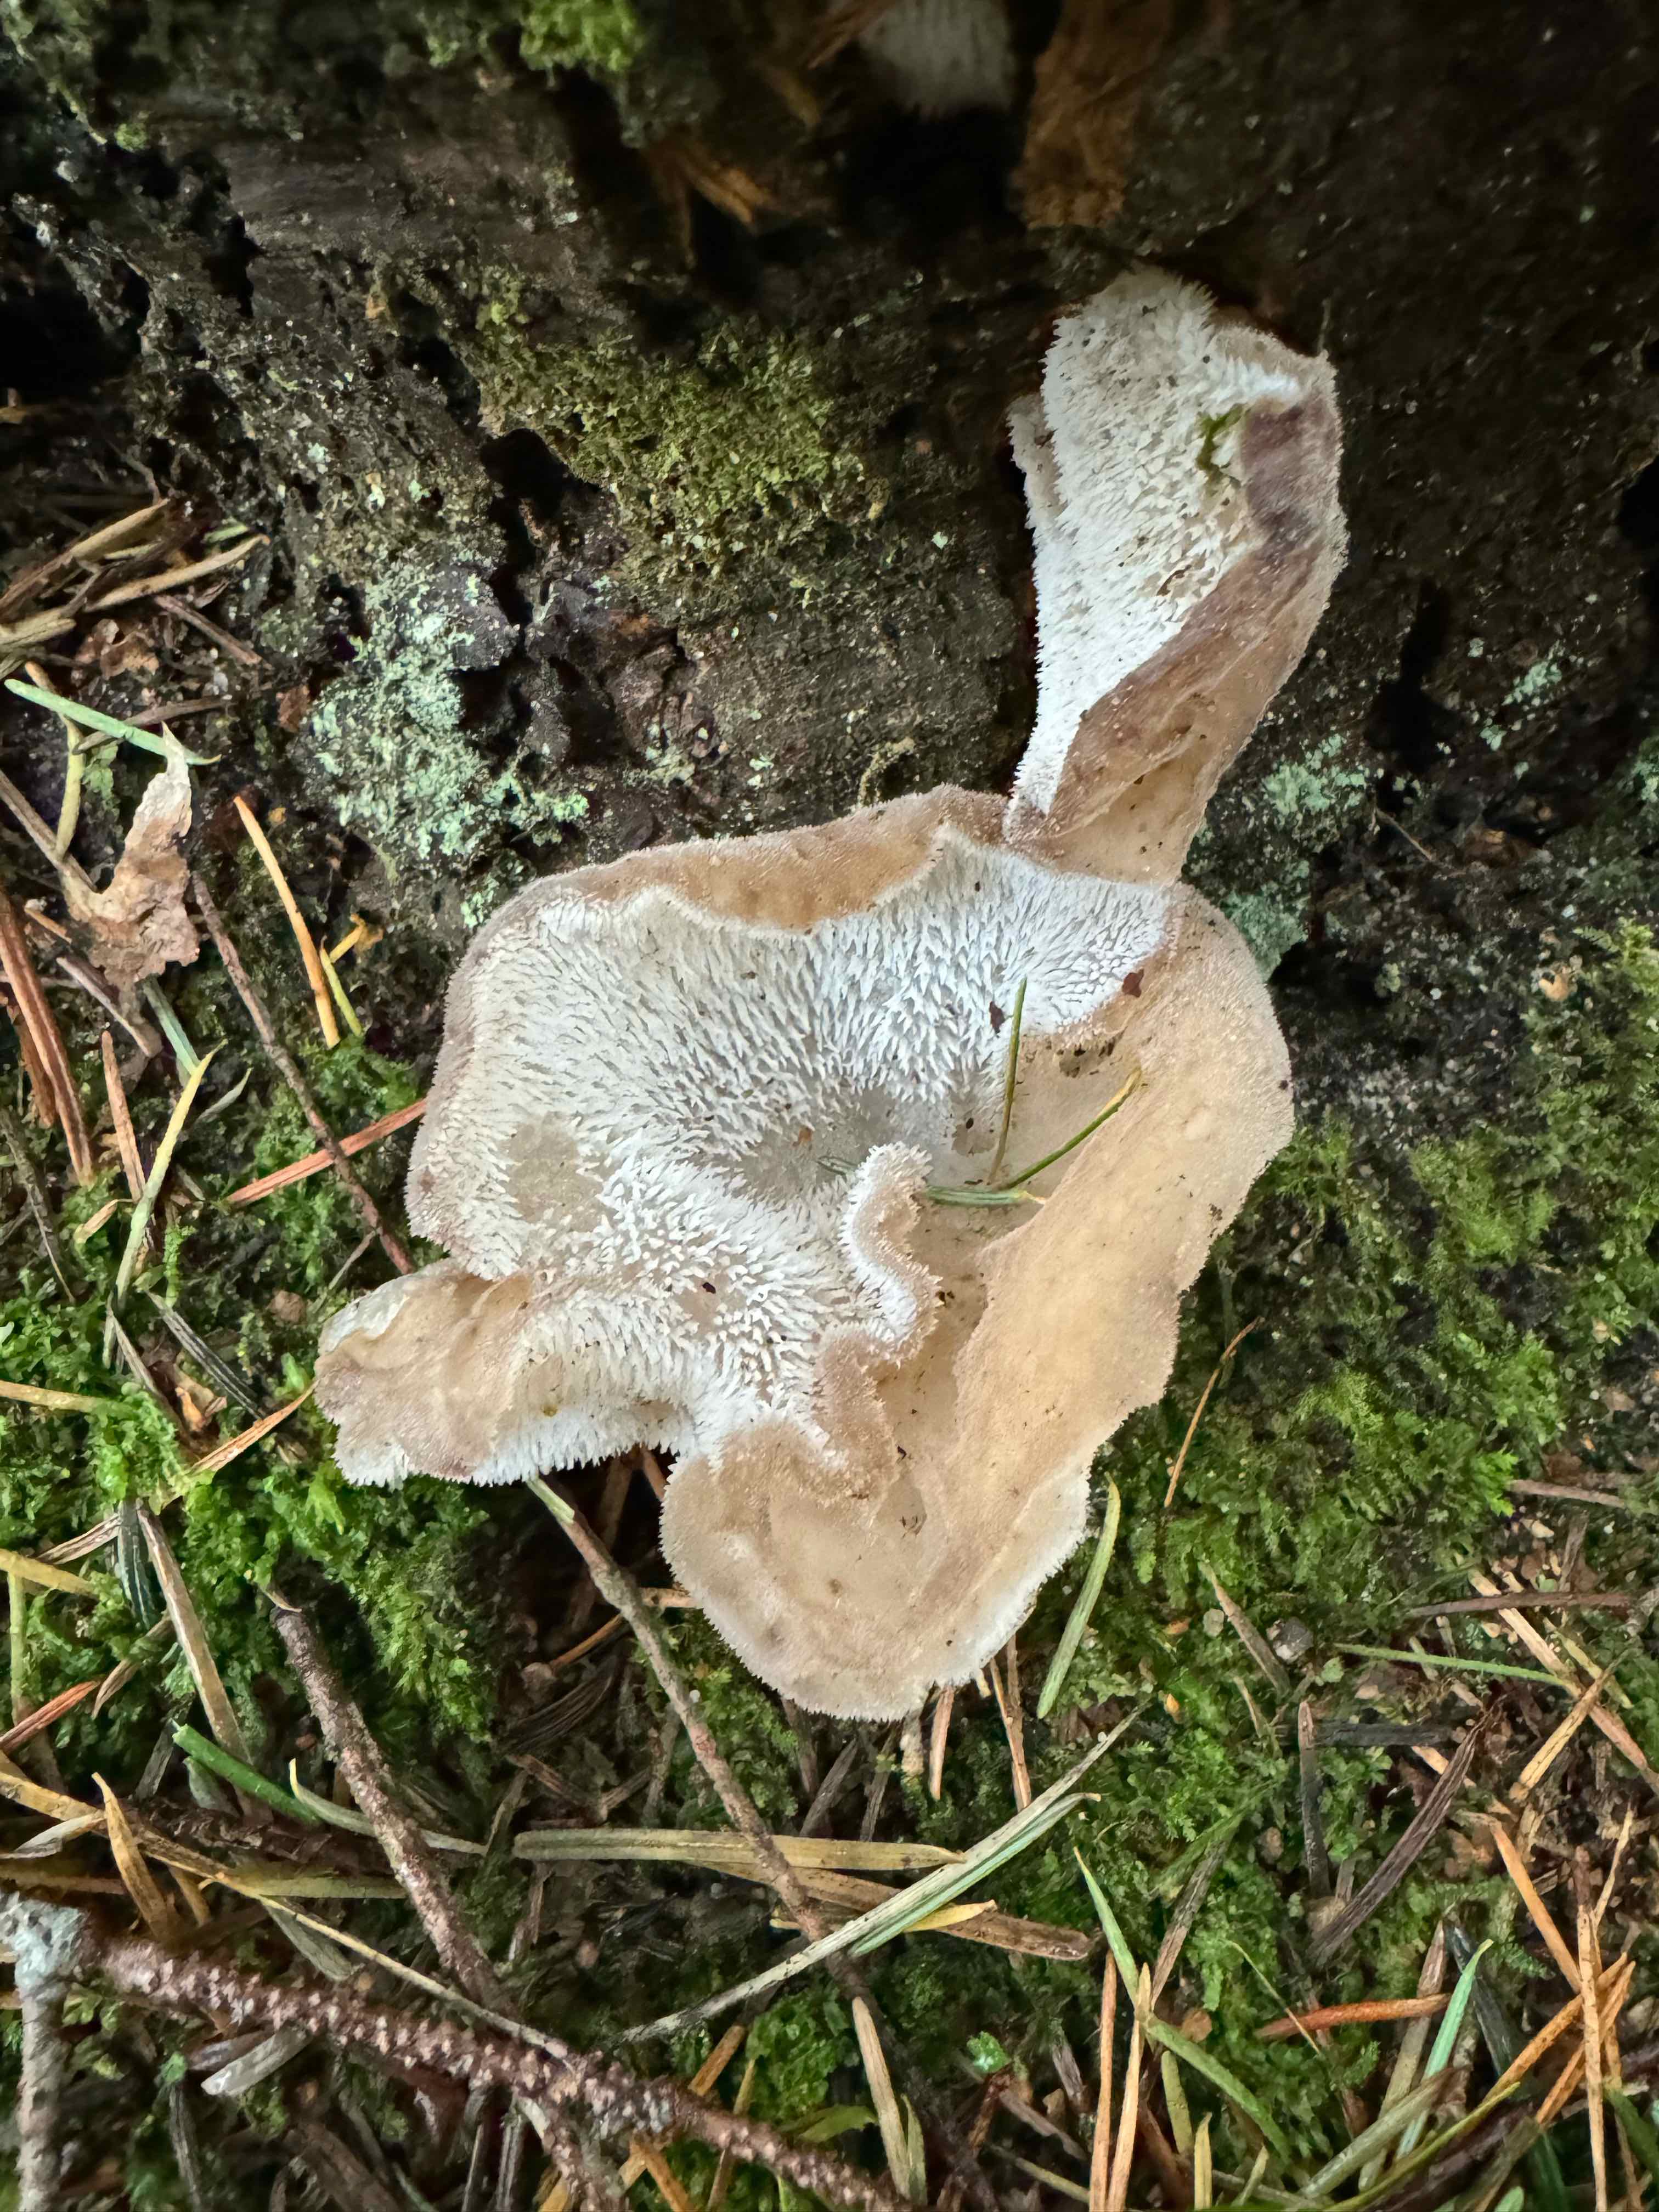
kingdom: Fungi
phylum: Basidiomycota
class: Agaricomycetes
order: Auriculariales
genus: Pseudohydnum
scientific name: Pseudohydnum gelatinosum
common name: bævretand
